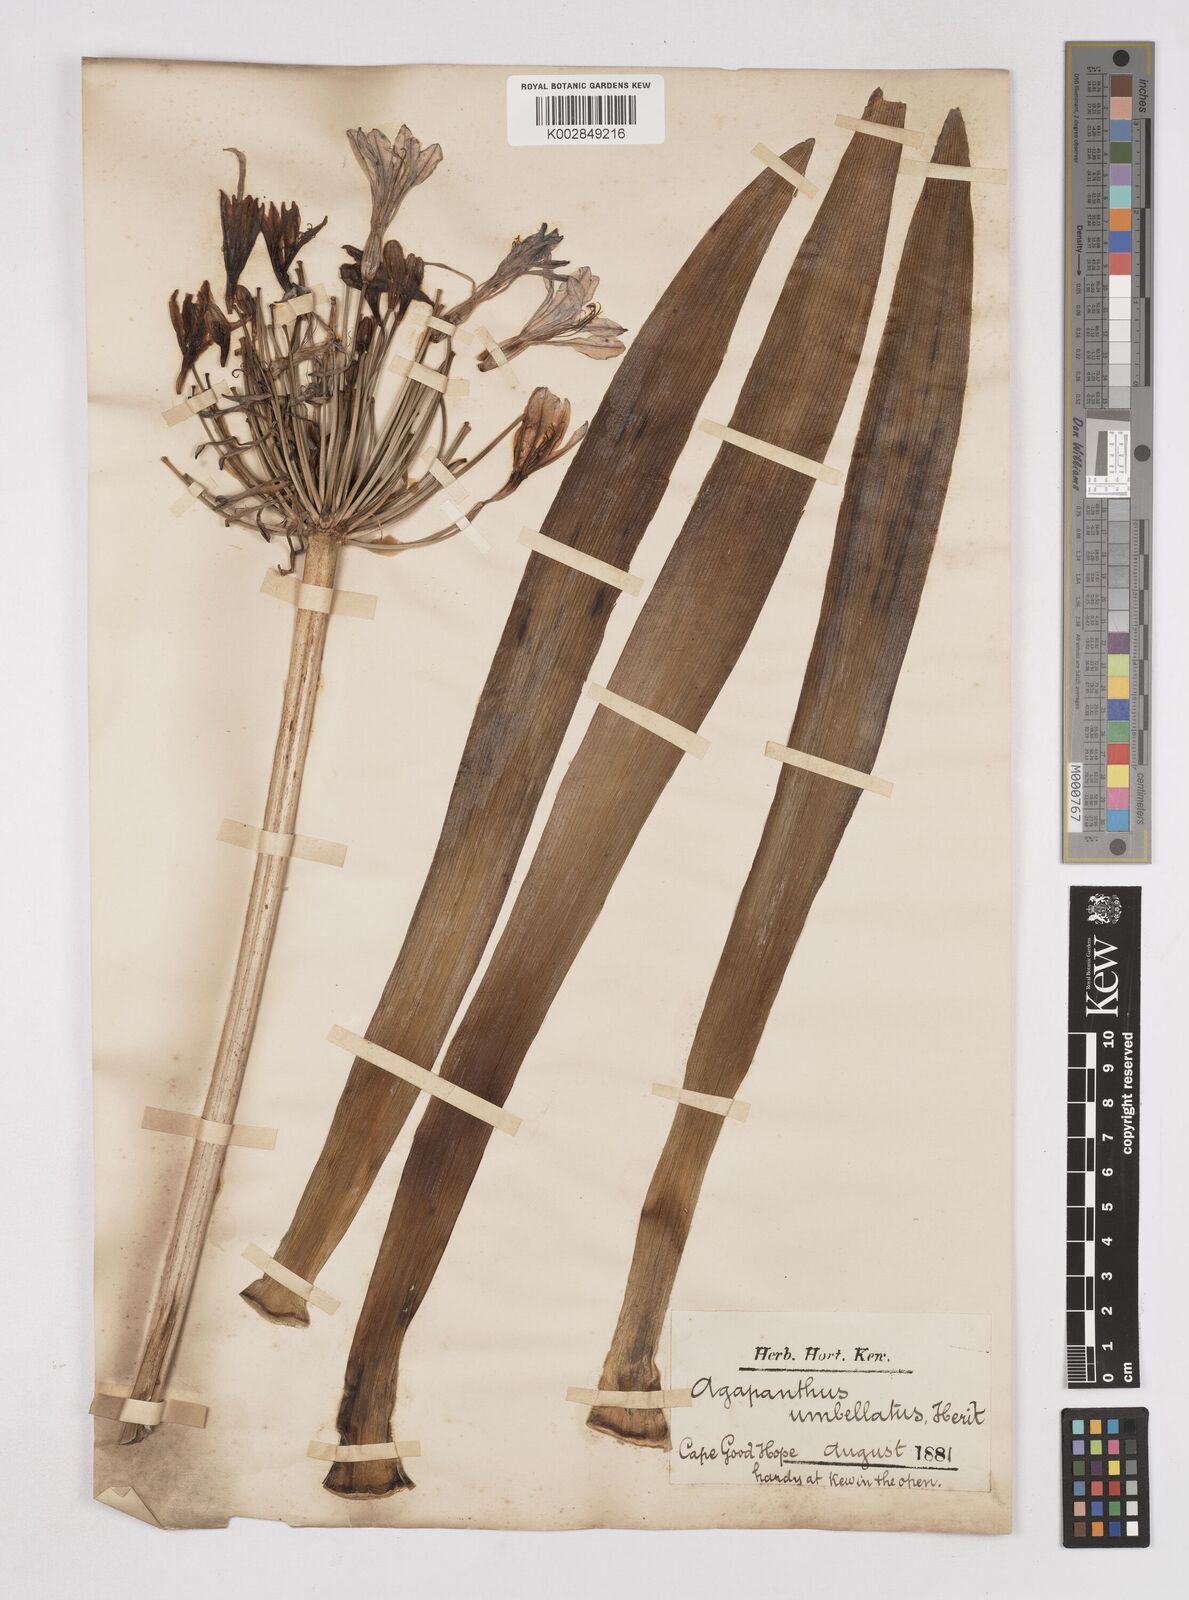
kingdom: Plantae
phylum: Tracheophyta
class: Liliopsida
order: Asparagales
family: Amaryllidaceae
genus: Agapanthus
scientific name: Agapanthus africanus
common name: Lily-of-the-nile
